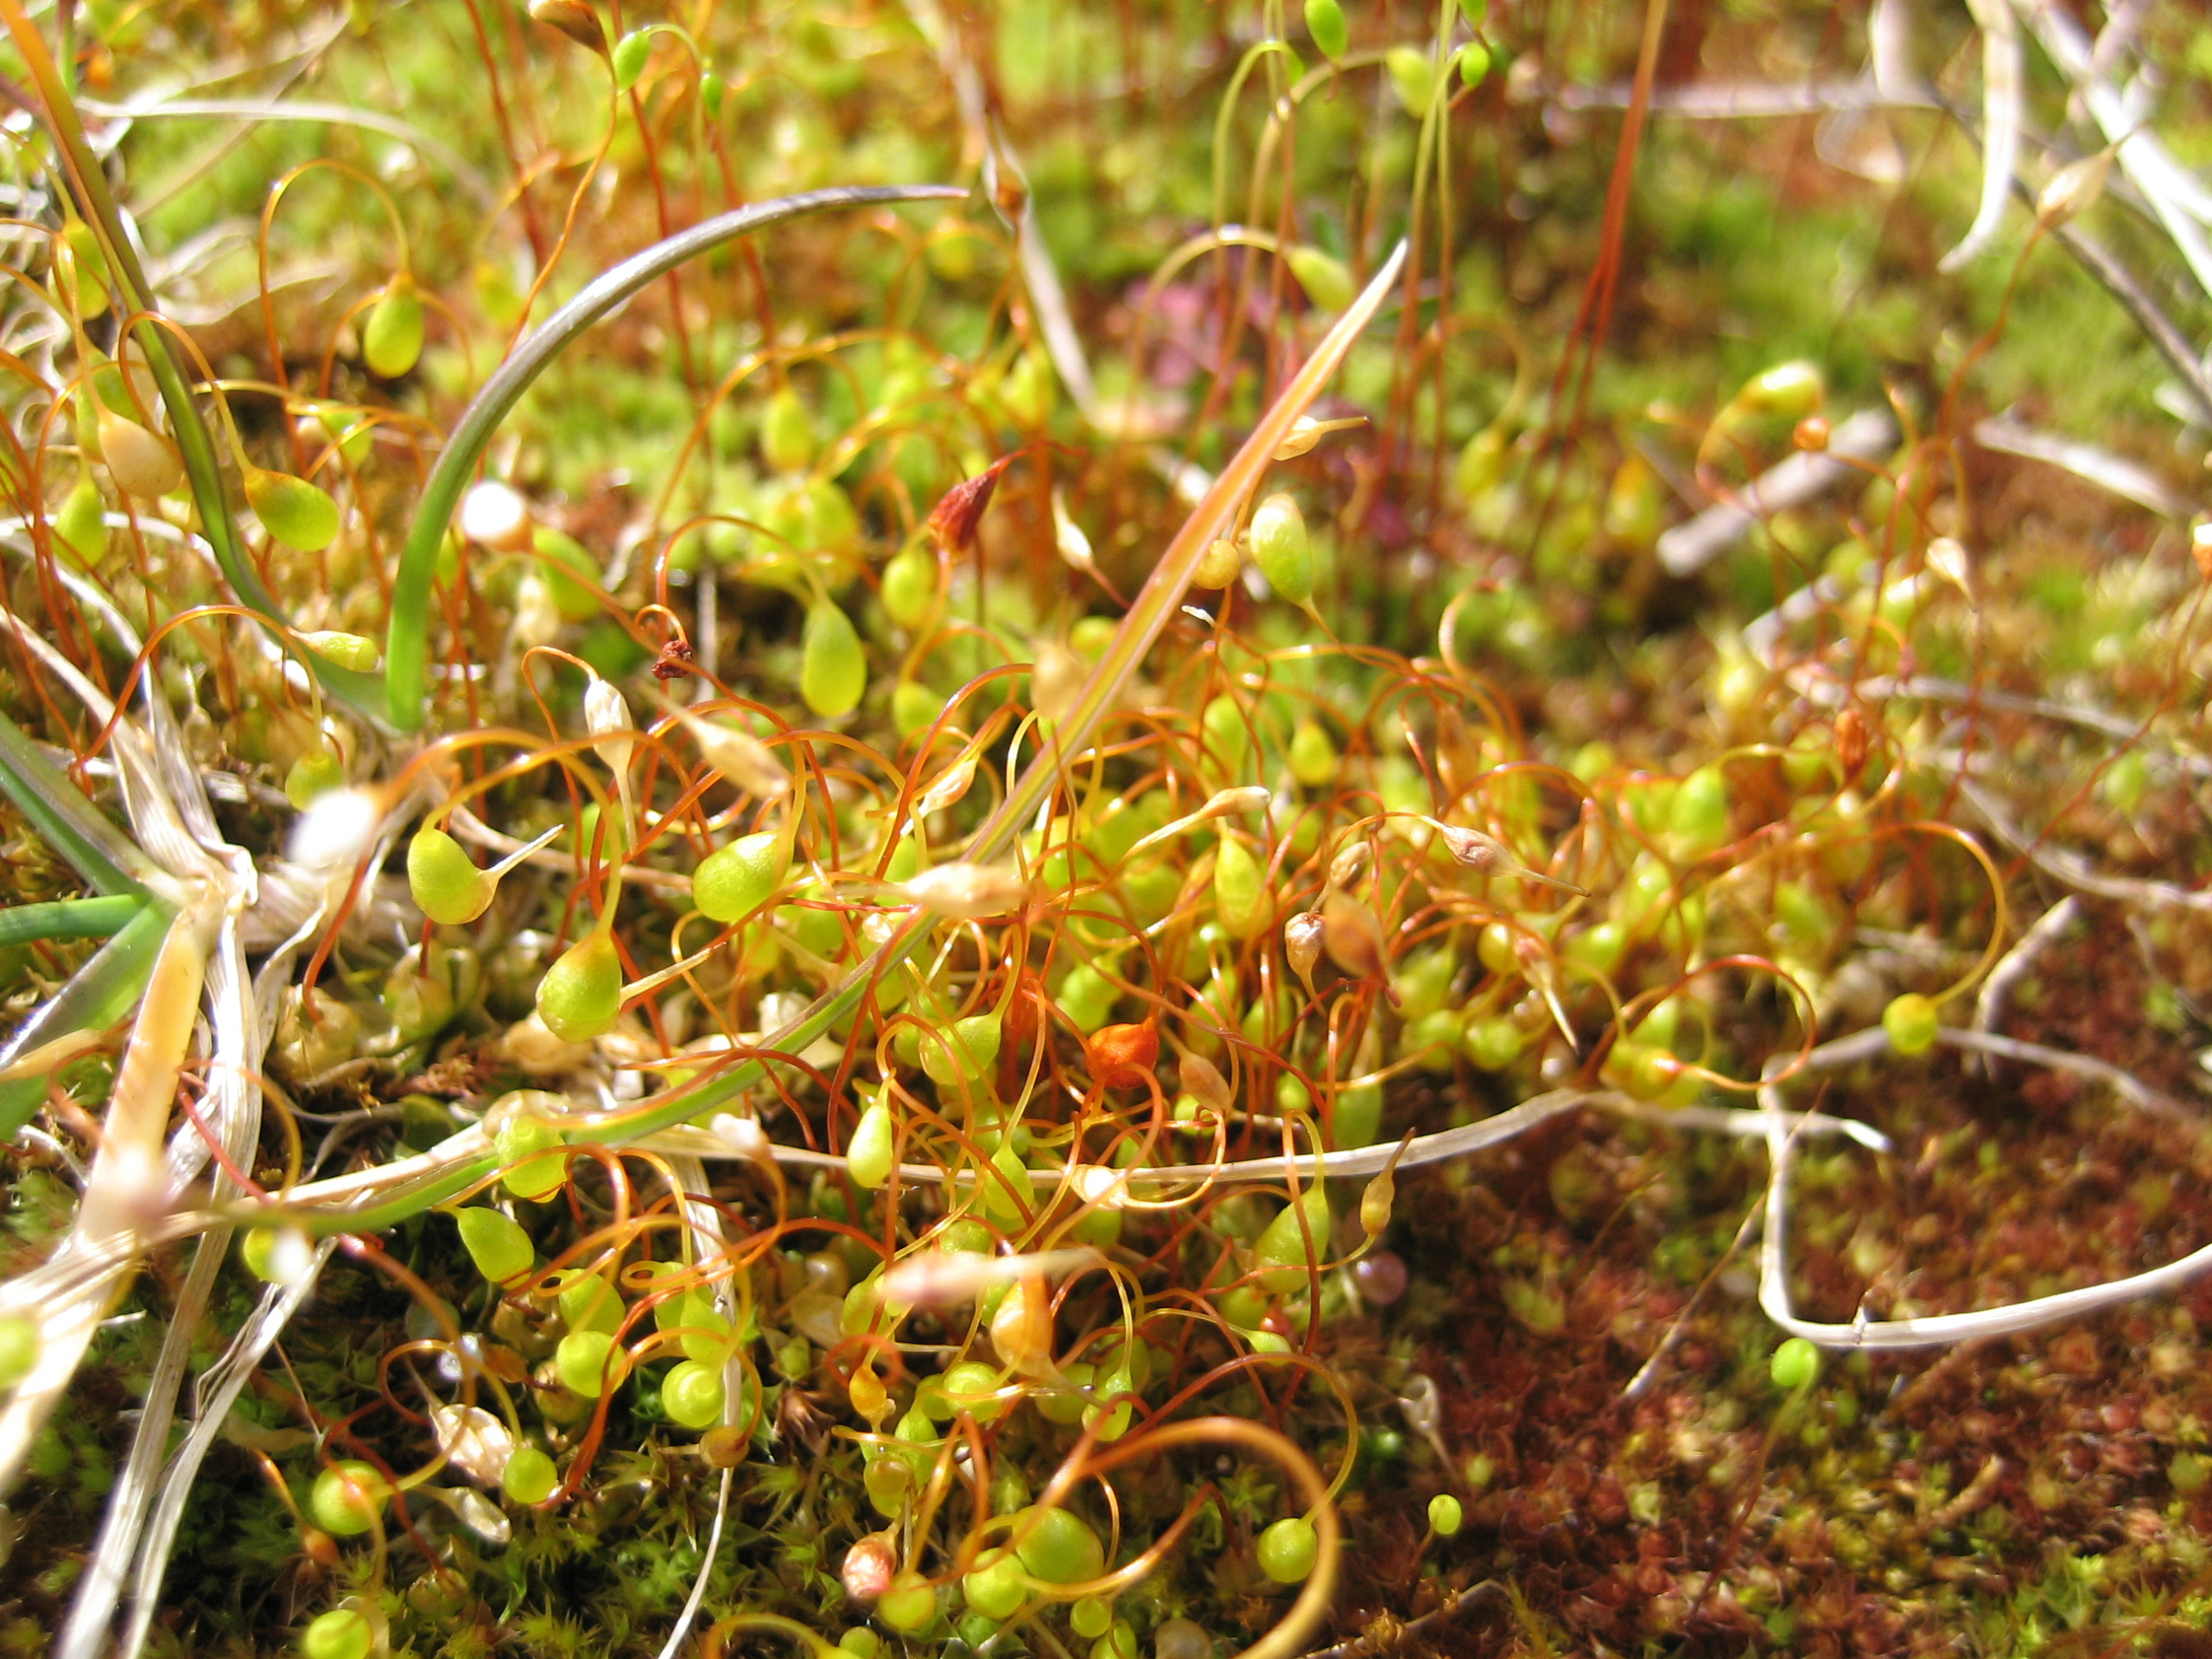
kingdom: Plantae
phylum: Bryophyta
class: Bryopsida
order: Funariales
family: Funariaceae
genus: Funaria
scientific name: Funaria hygrometrica
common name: Almindelig snobørste
